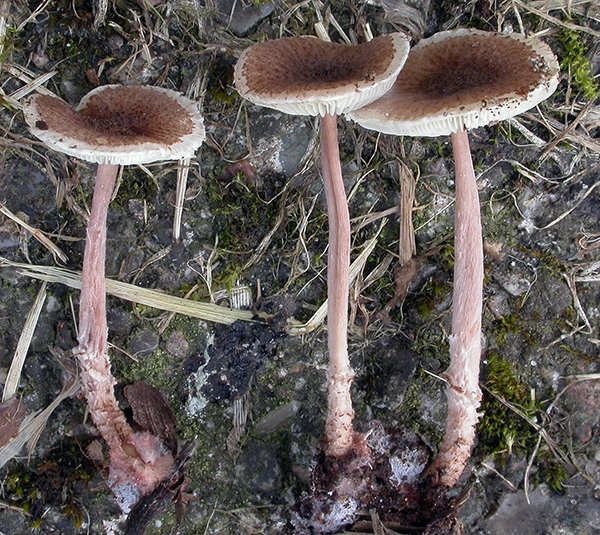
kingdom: Fungi
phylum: Basidiomycota
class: Agaricomycetes
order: Agaricales
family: Agaricaceae
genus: Lepiota
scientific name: Lepiota echinella
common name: finskællet parasolhat
